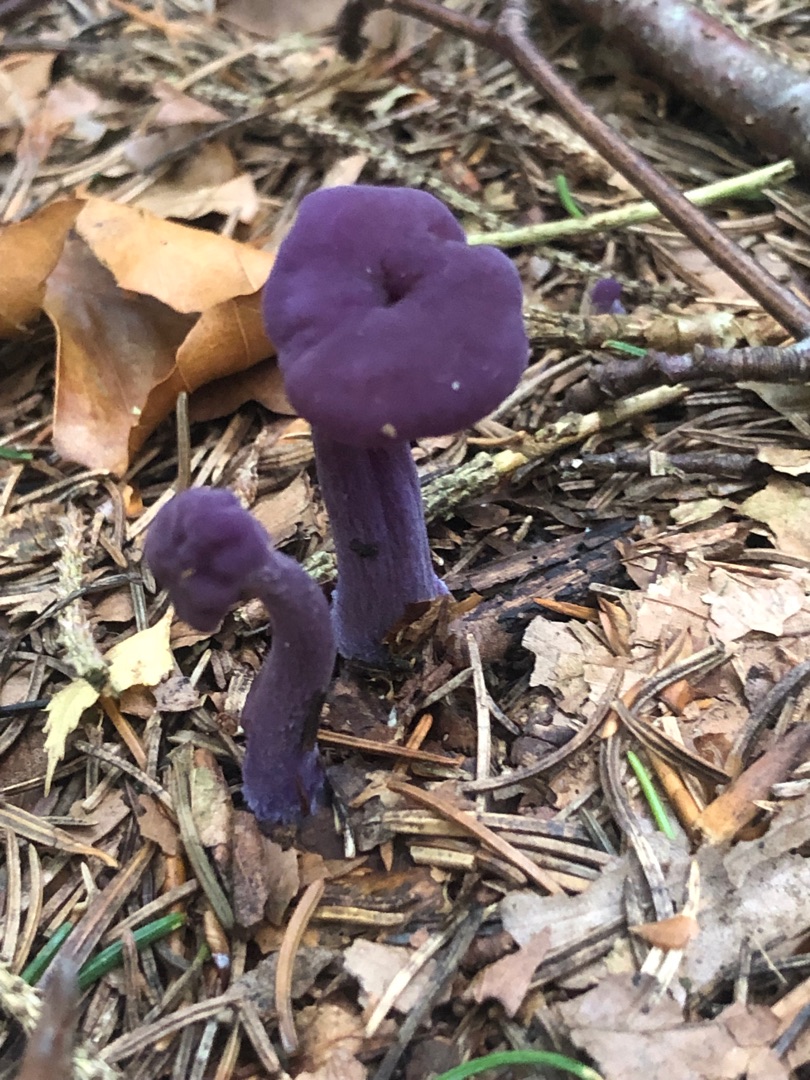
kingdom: Fungi
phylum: Basidiomycota
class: Agaricomycetes
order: Agaricales
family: Hydnangiaceae
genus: Laccaria
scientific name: Laccaria amethystina
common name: Violet ametysthat
